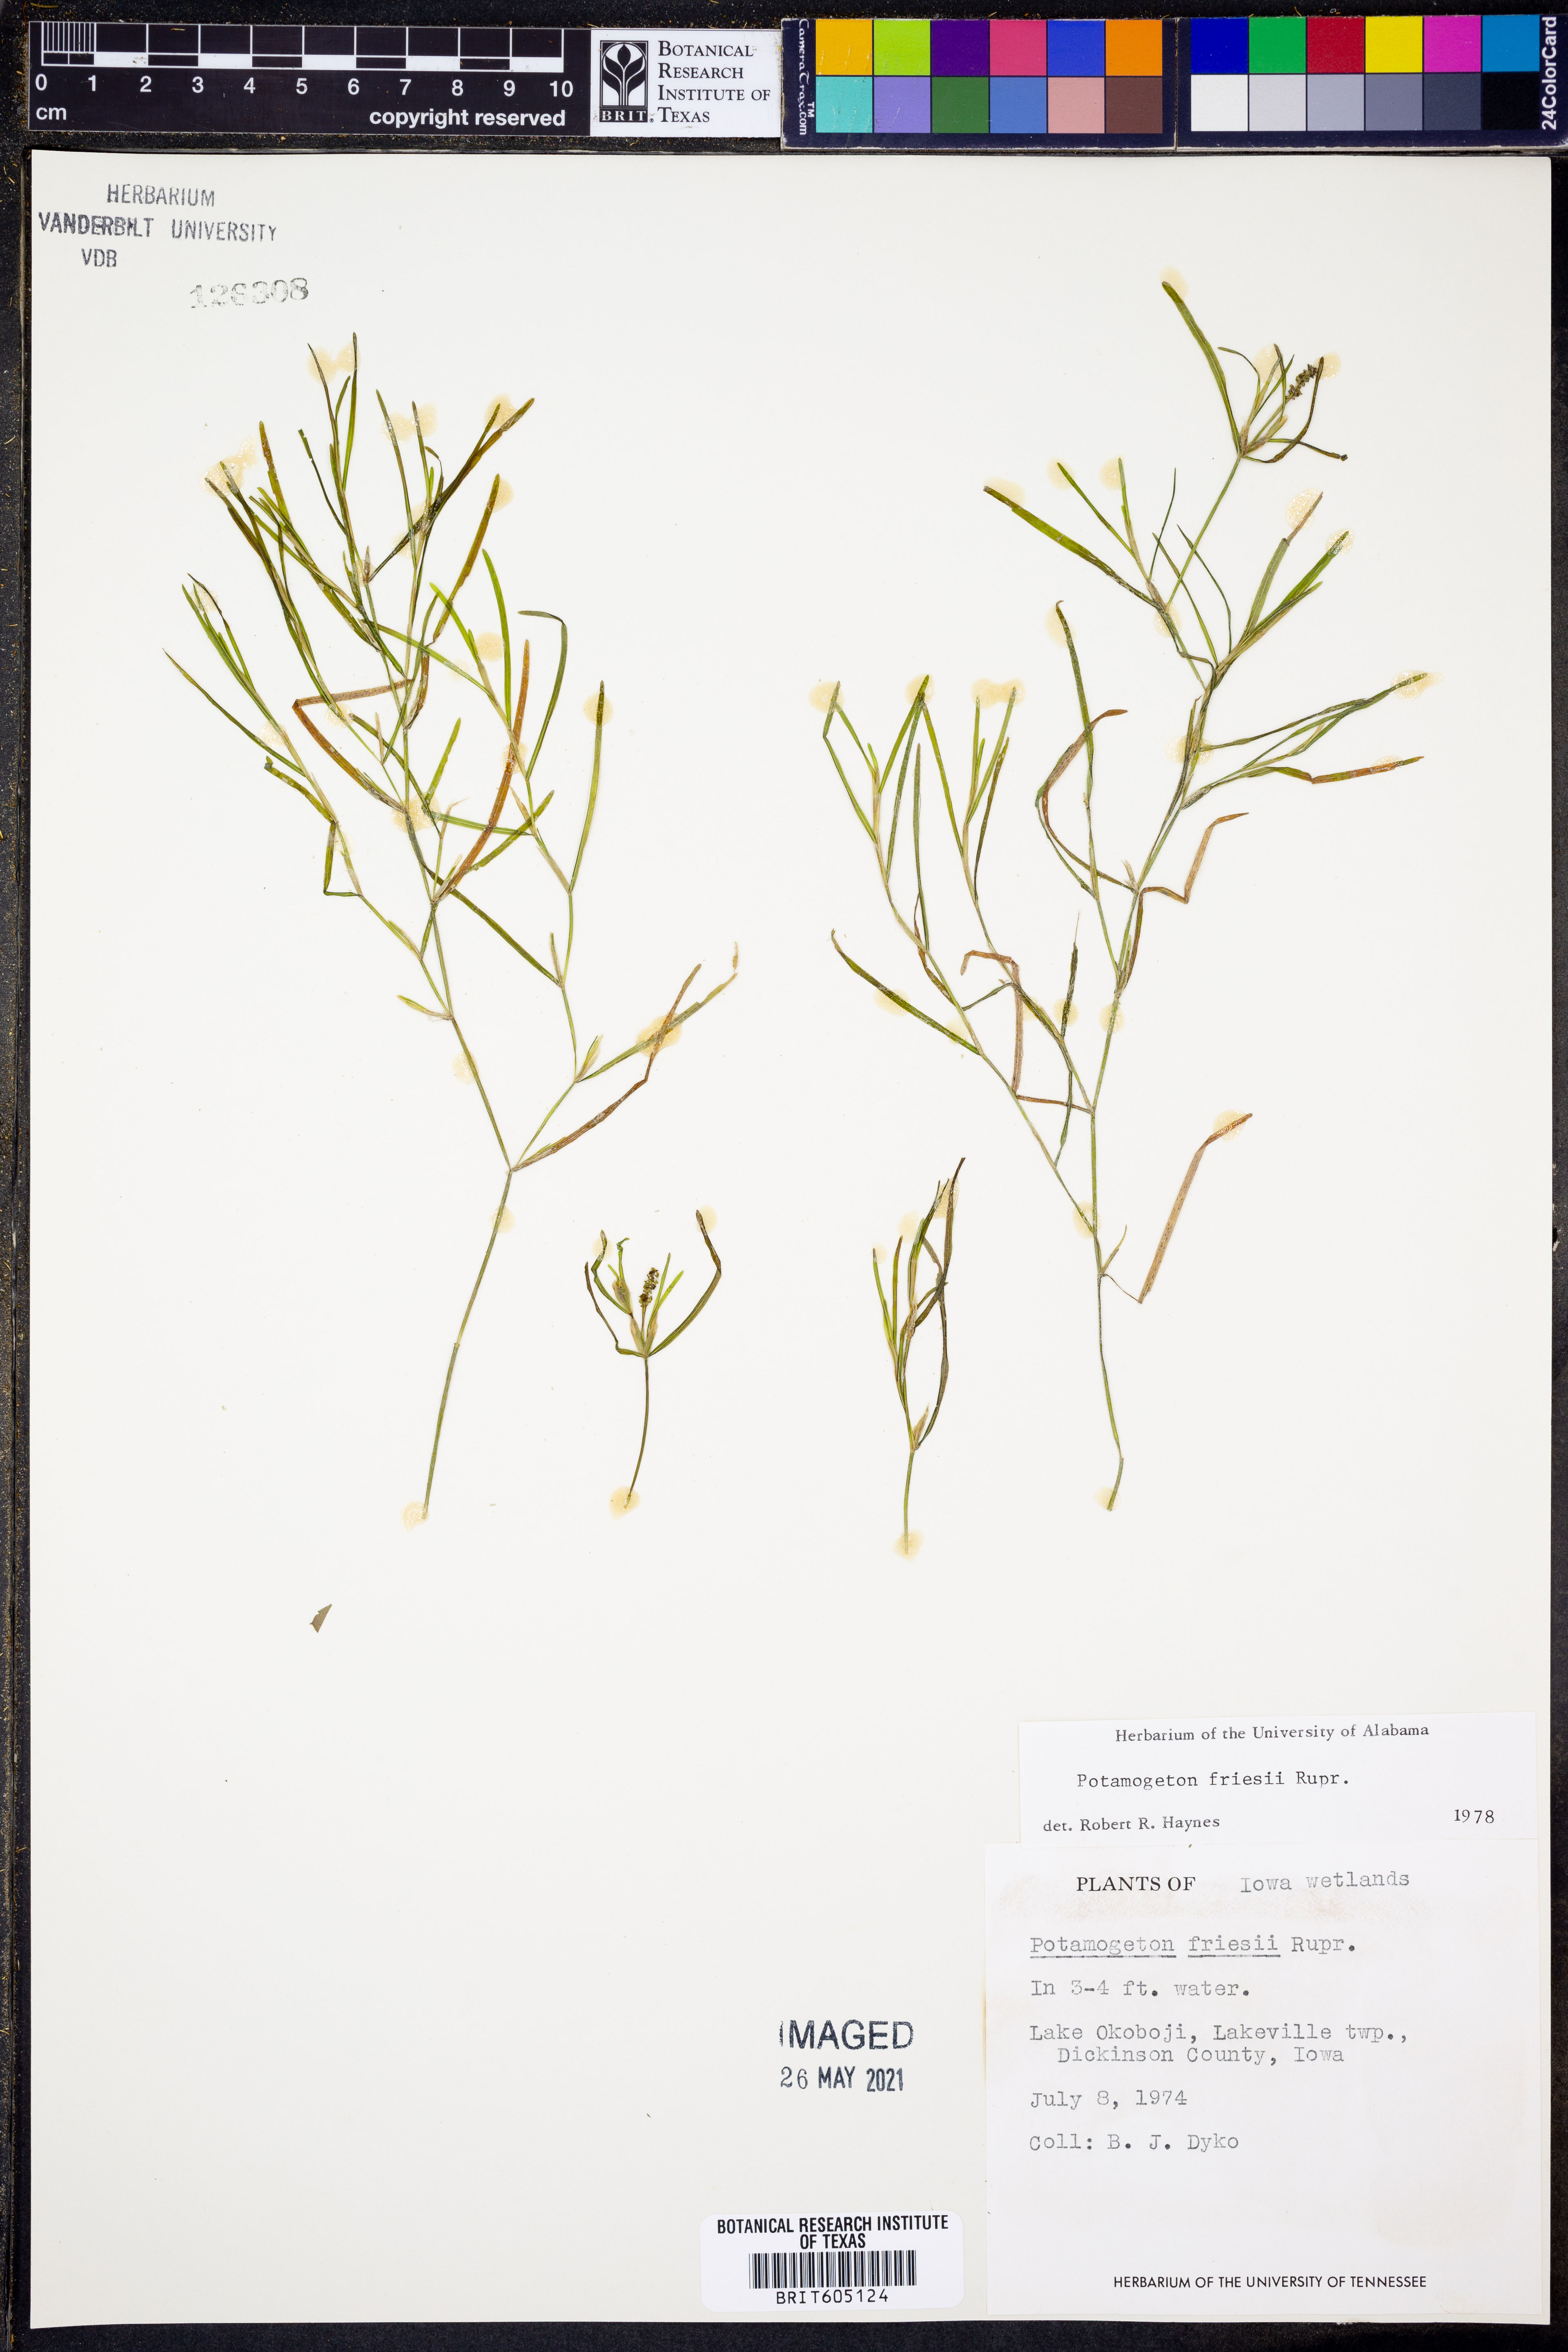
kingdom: Plantae
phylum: Tracheophyta
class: Liliopsida
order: Alismatales
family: Potamogetonaceae
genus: Potamogeton
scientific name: Potamogeton friesii
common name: Flat-stalked pondweed
